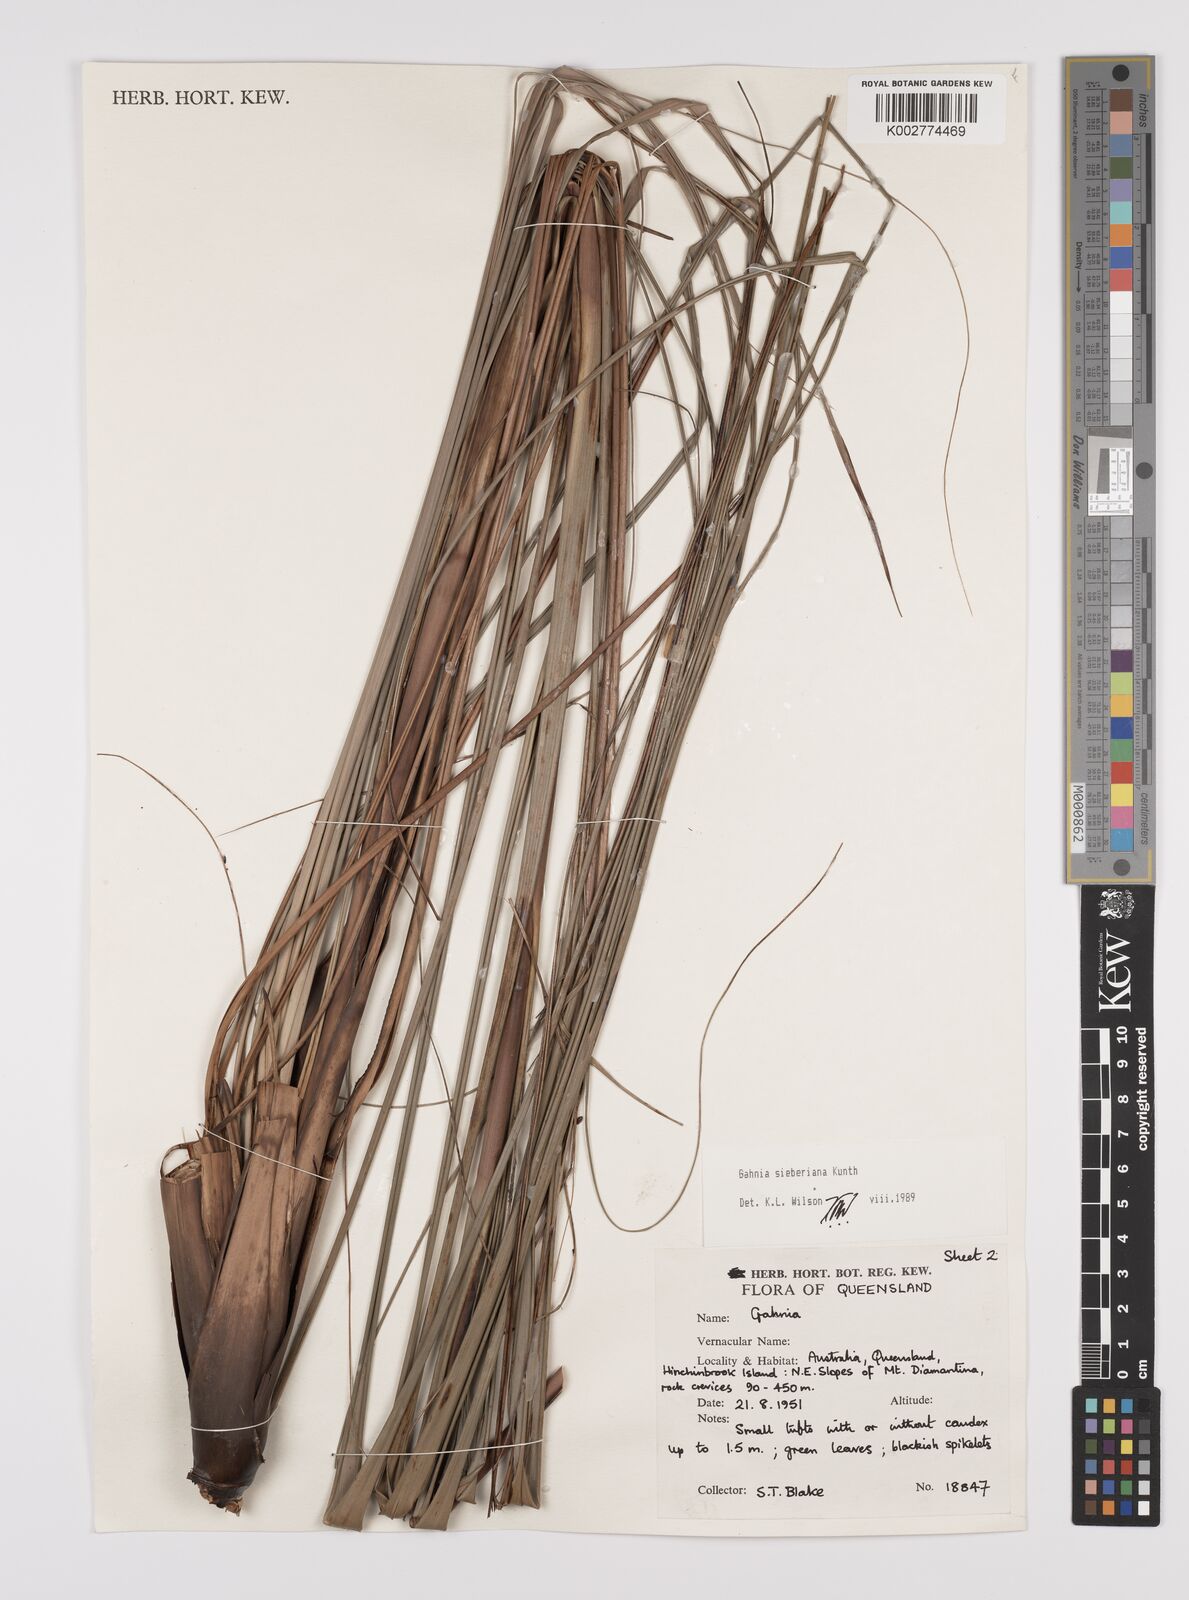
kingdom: Plantae
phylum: Tracheophyta
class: Liliopsida
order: Poales
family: Cyperaceae
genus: Gahnia
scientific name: Gahnia sieberiana
